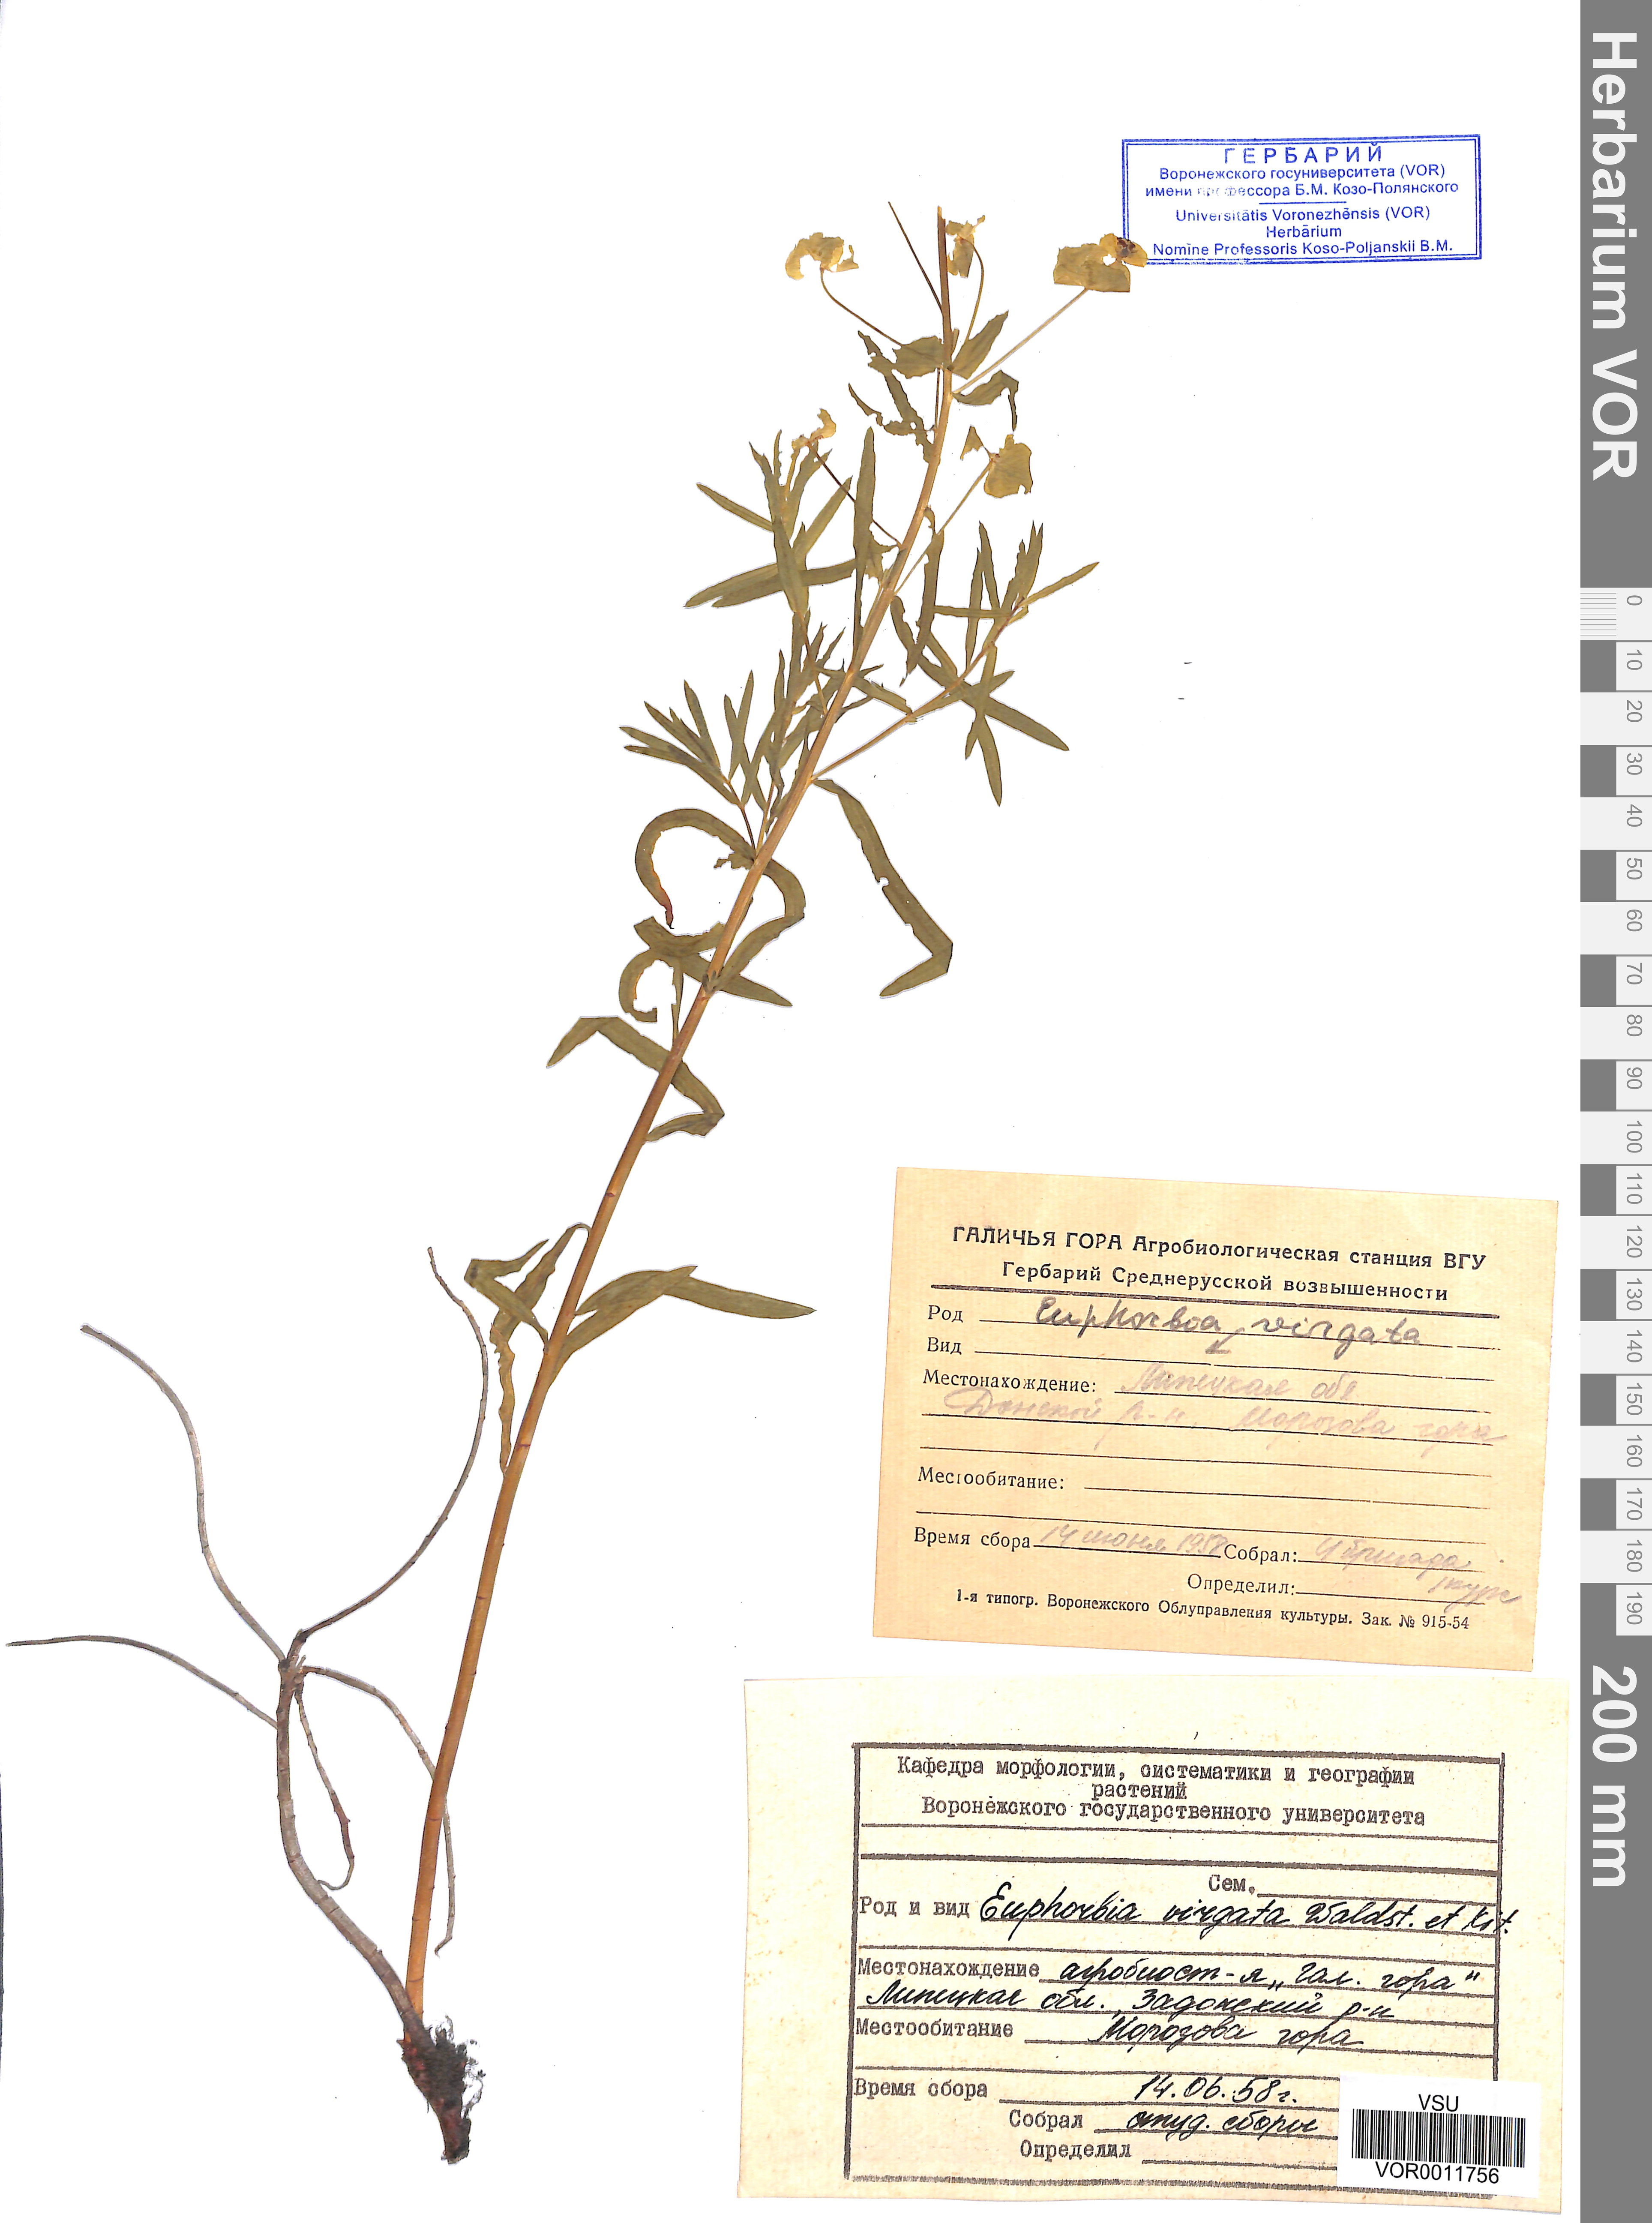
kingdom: Plantae
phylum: Tracheophyta
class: Magnoliopsida
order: Malpighiales
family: Euphorbiaceae
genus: Euphorbia
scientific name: Euphorbia virgata
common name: Leafy spurge
